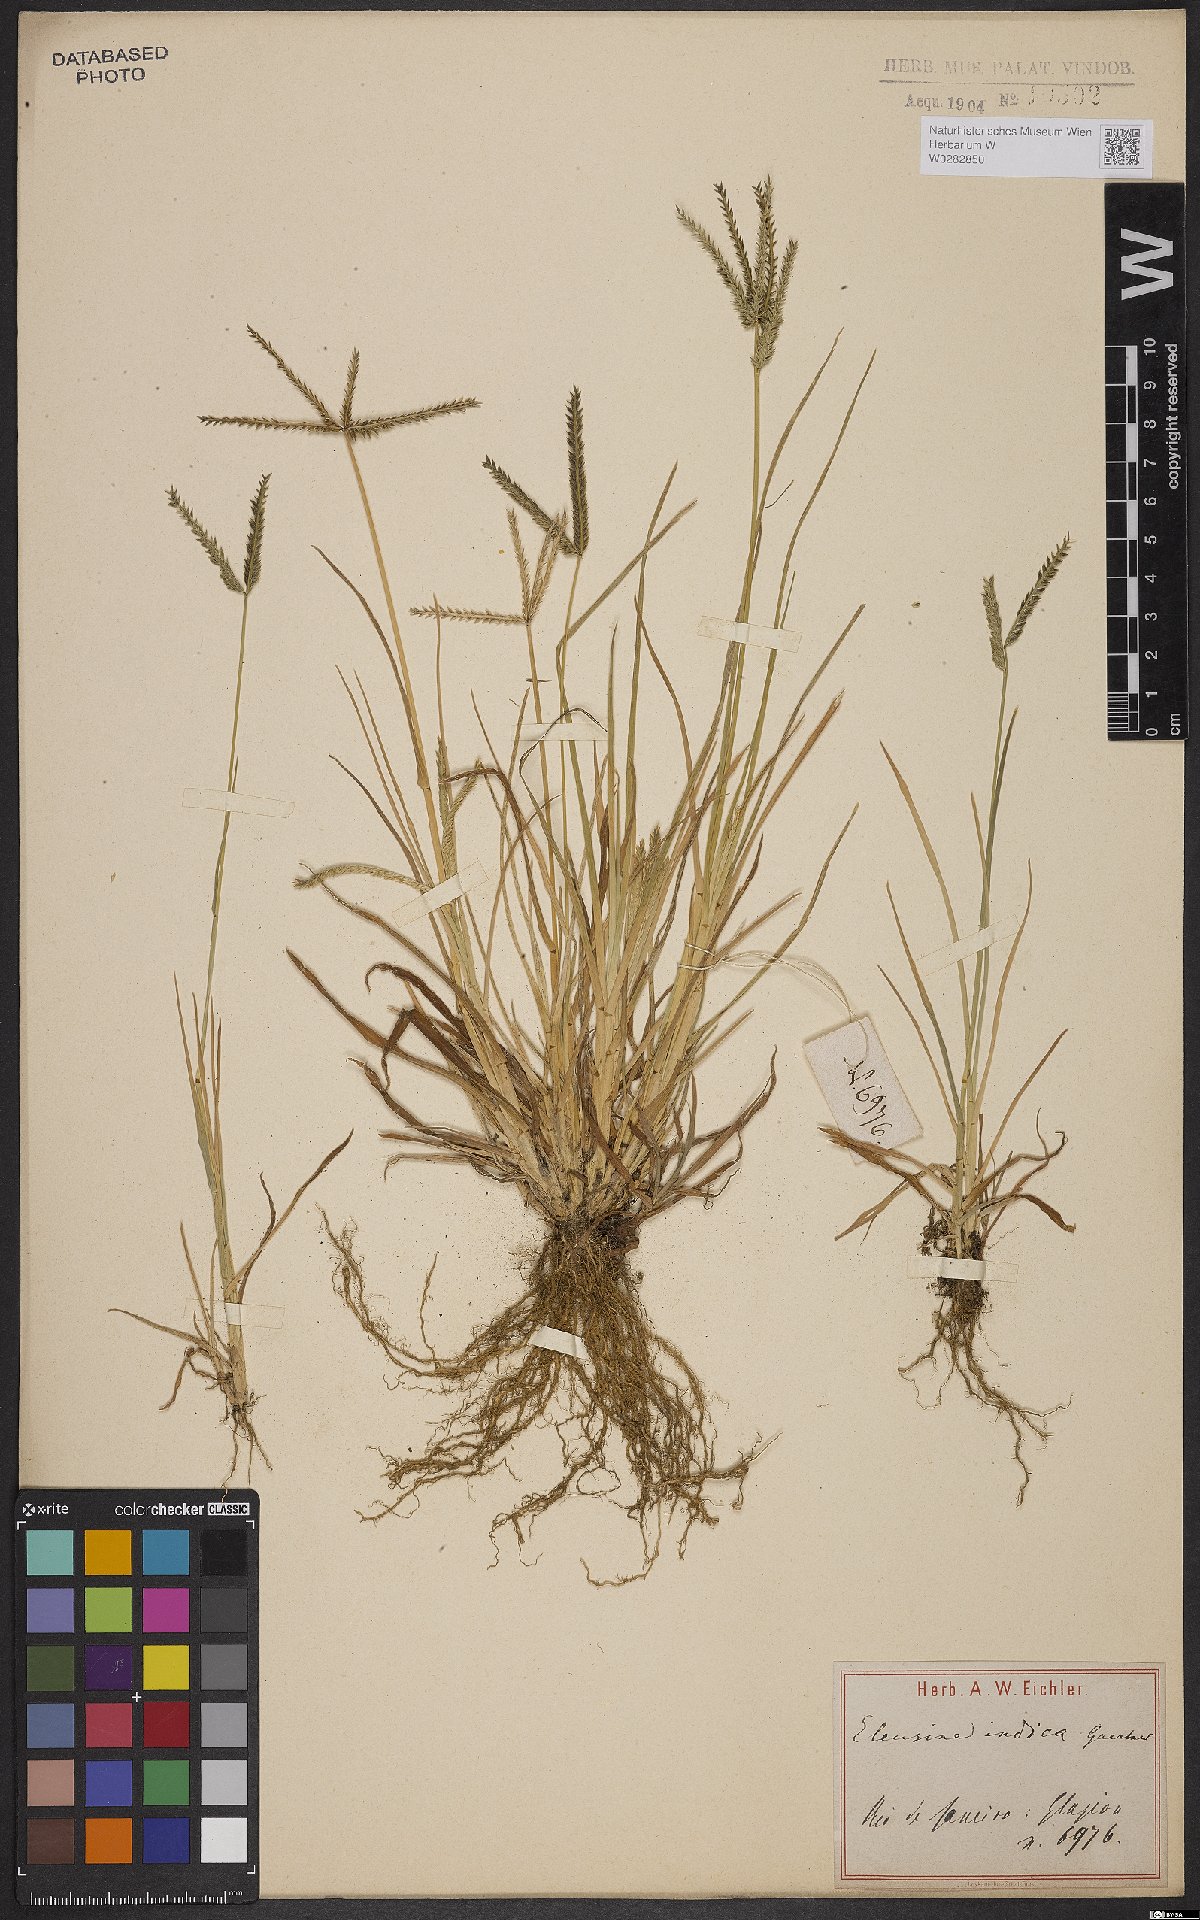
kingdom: Plantae
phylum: Tracheophyta
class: Liliopsida
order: Poales
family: Poaceae
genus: Eleusine
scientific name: Eleusine indica
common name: Yard-grass
